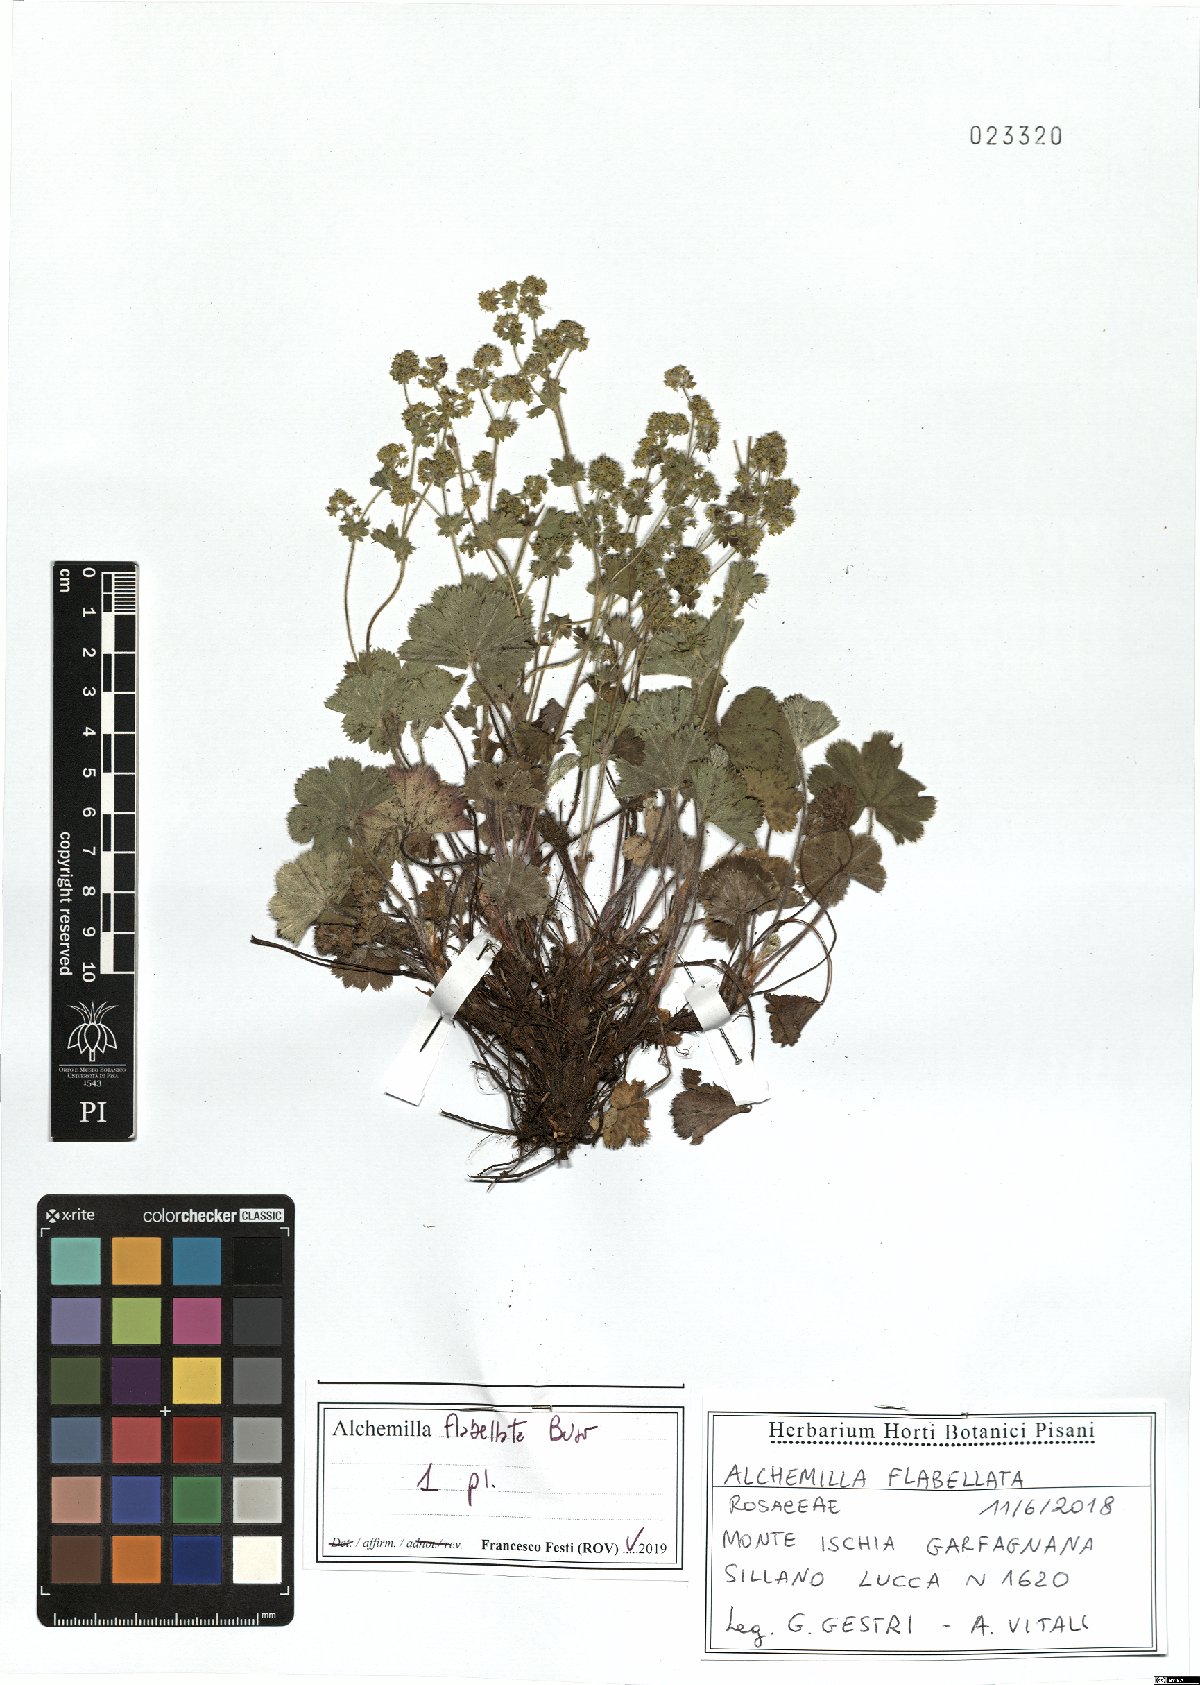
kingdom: Plantae
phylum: Tracheophyta
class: Magnoliopsida
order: Rosales
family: Rosaceae
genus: Alchemilla
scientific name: Alchemilla flabellata
